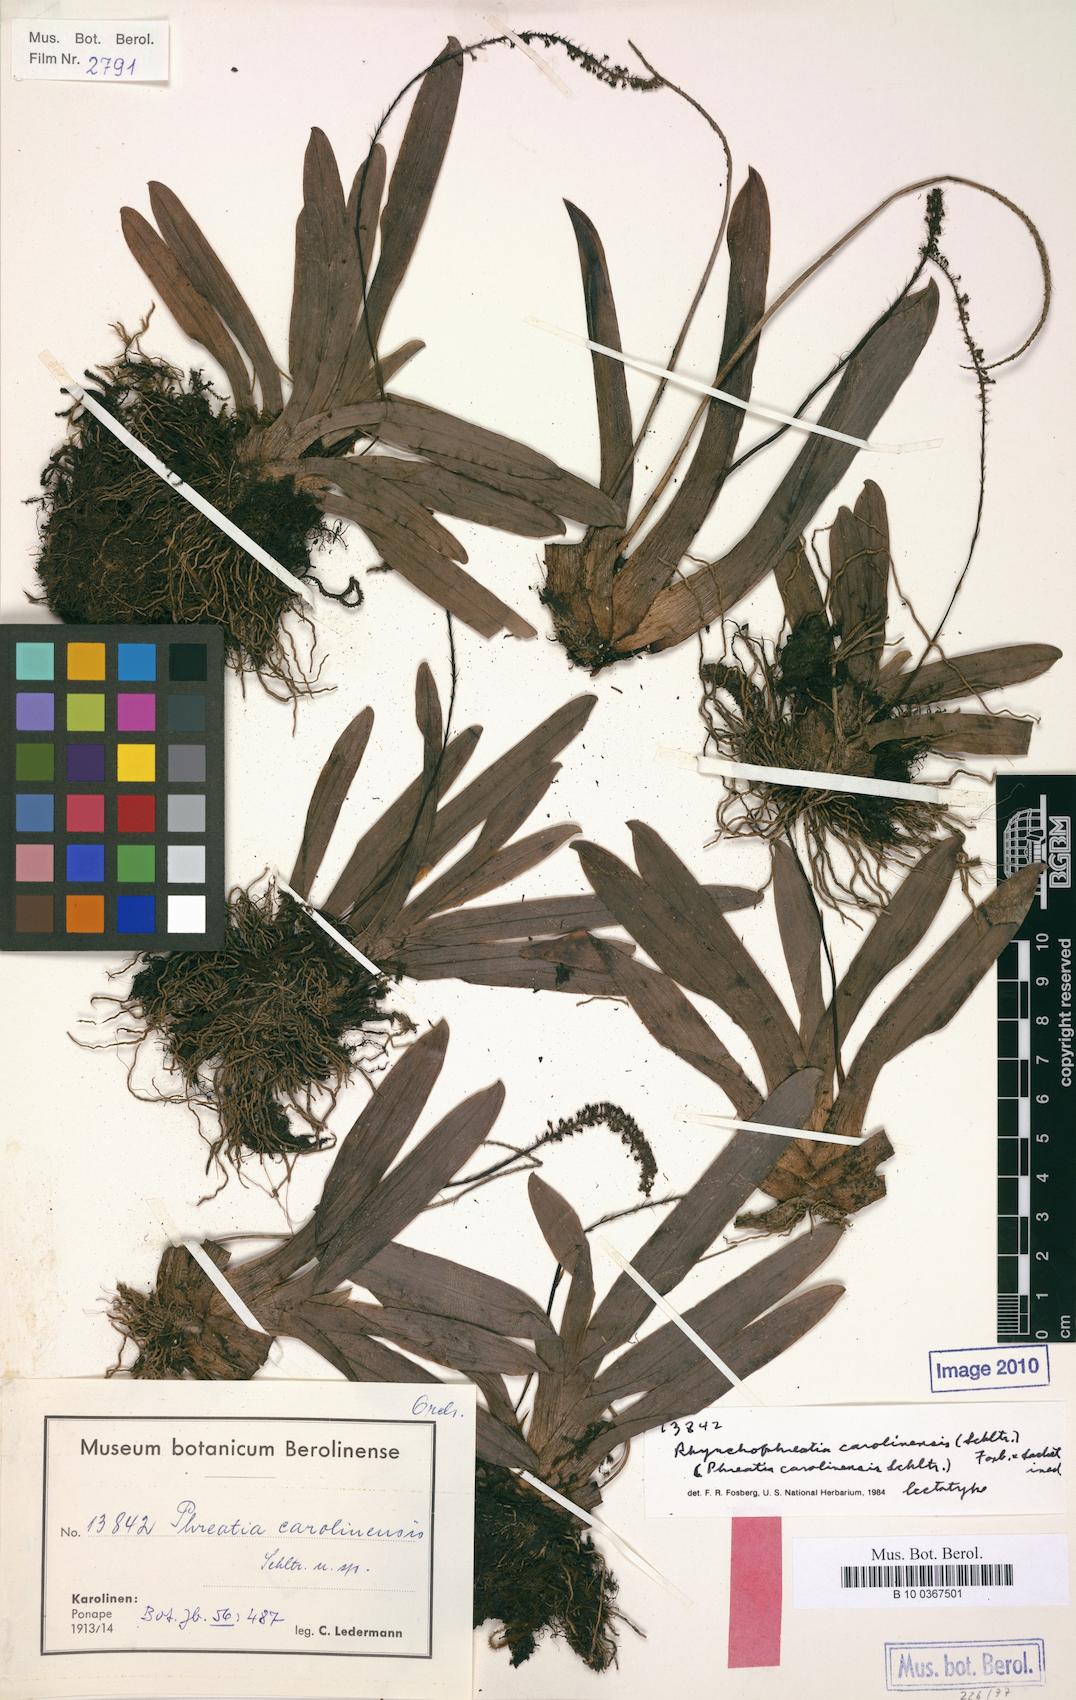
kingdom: Plantae
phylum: Tracheophyta
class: Liliopsida
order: Asparagales
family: Orchidaceae
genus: Phreatia
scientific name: Phreatia carolinensis
